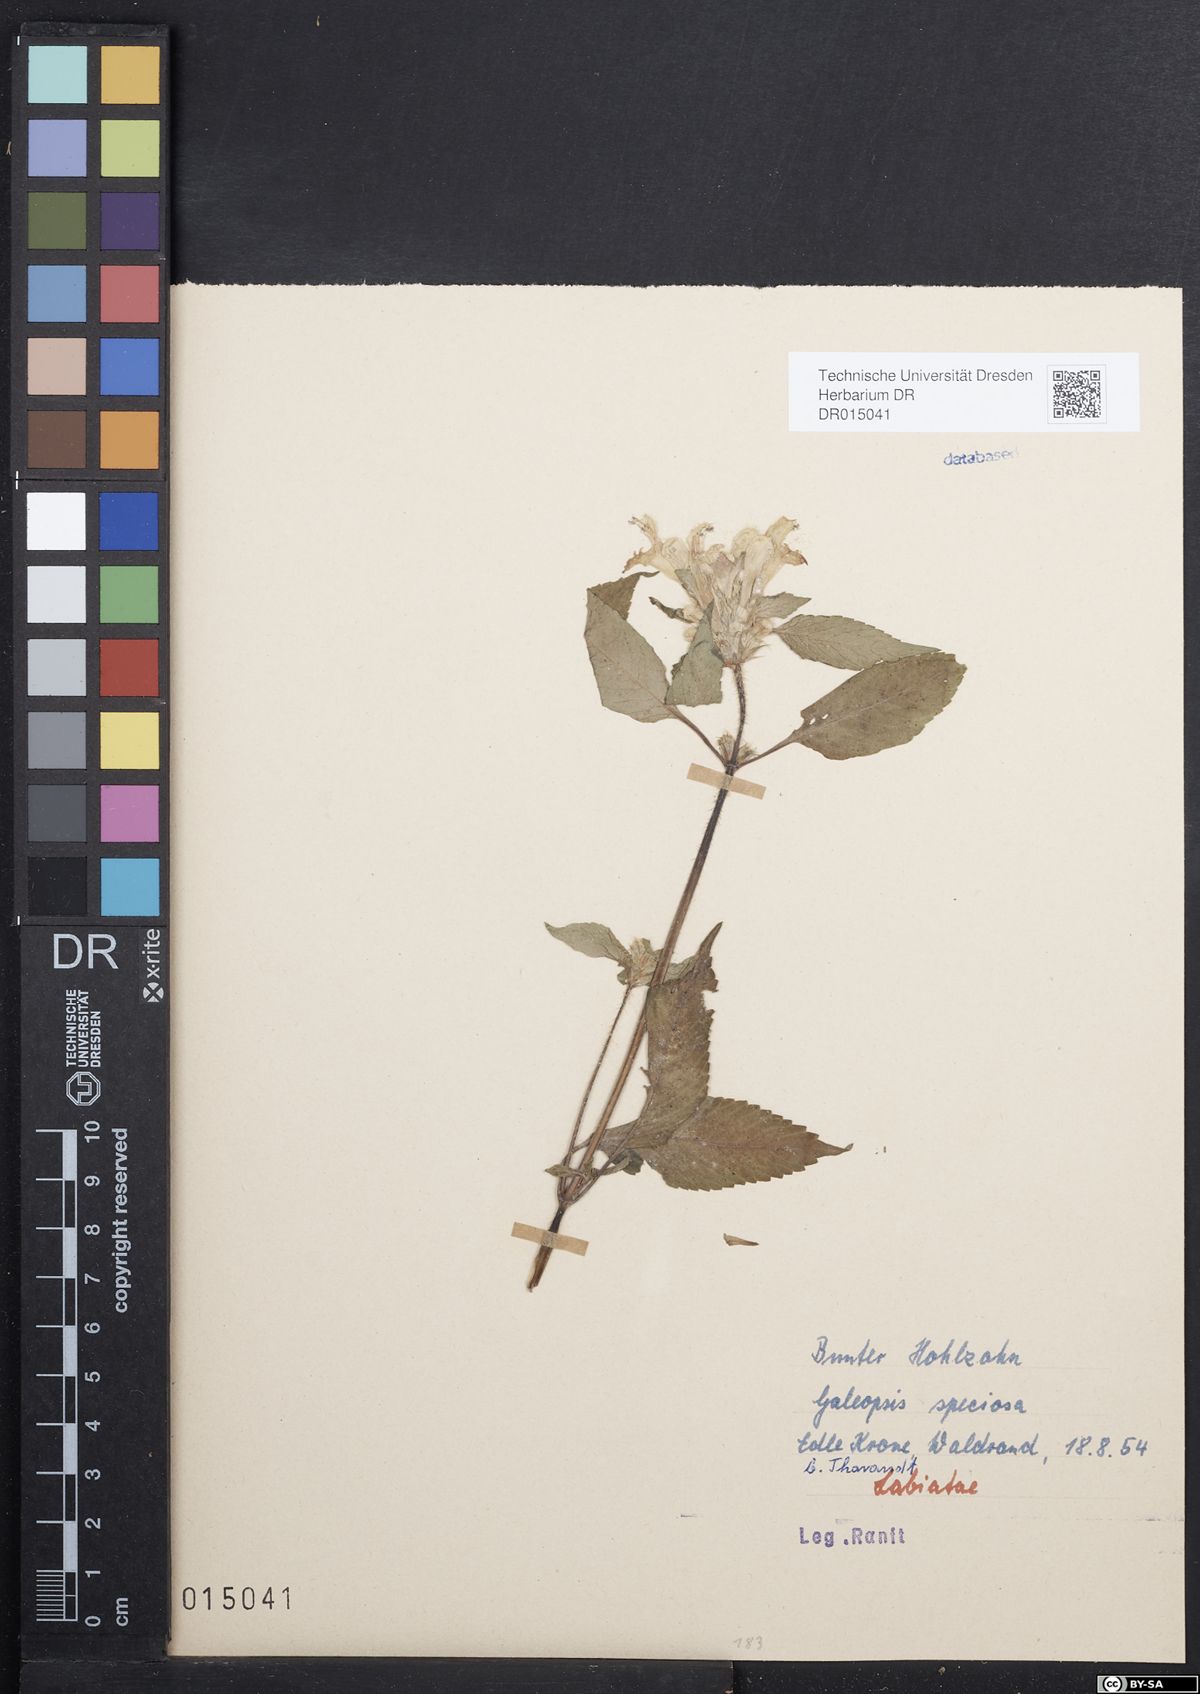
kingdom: Plantae
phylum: Tracheophyta
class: Magnoliopsida
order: Lamiales
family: Lamiaceae
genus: Galeopsis
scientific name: Galeopsis speciosa
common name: Large-flowered hemp-nettle
